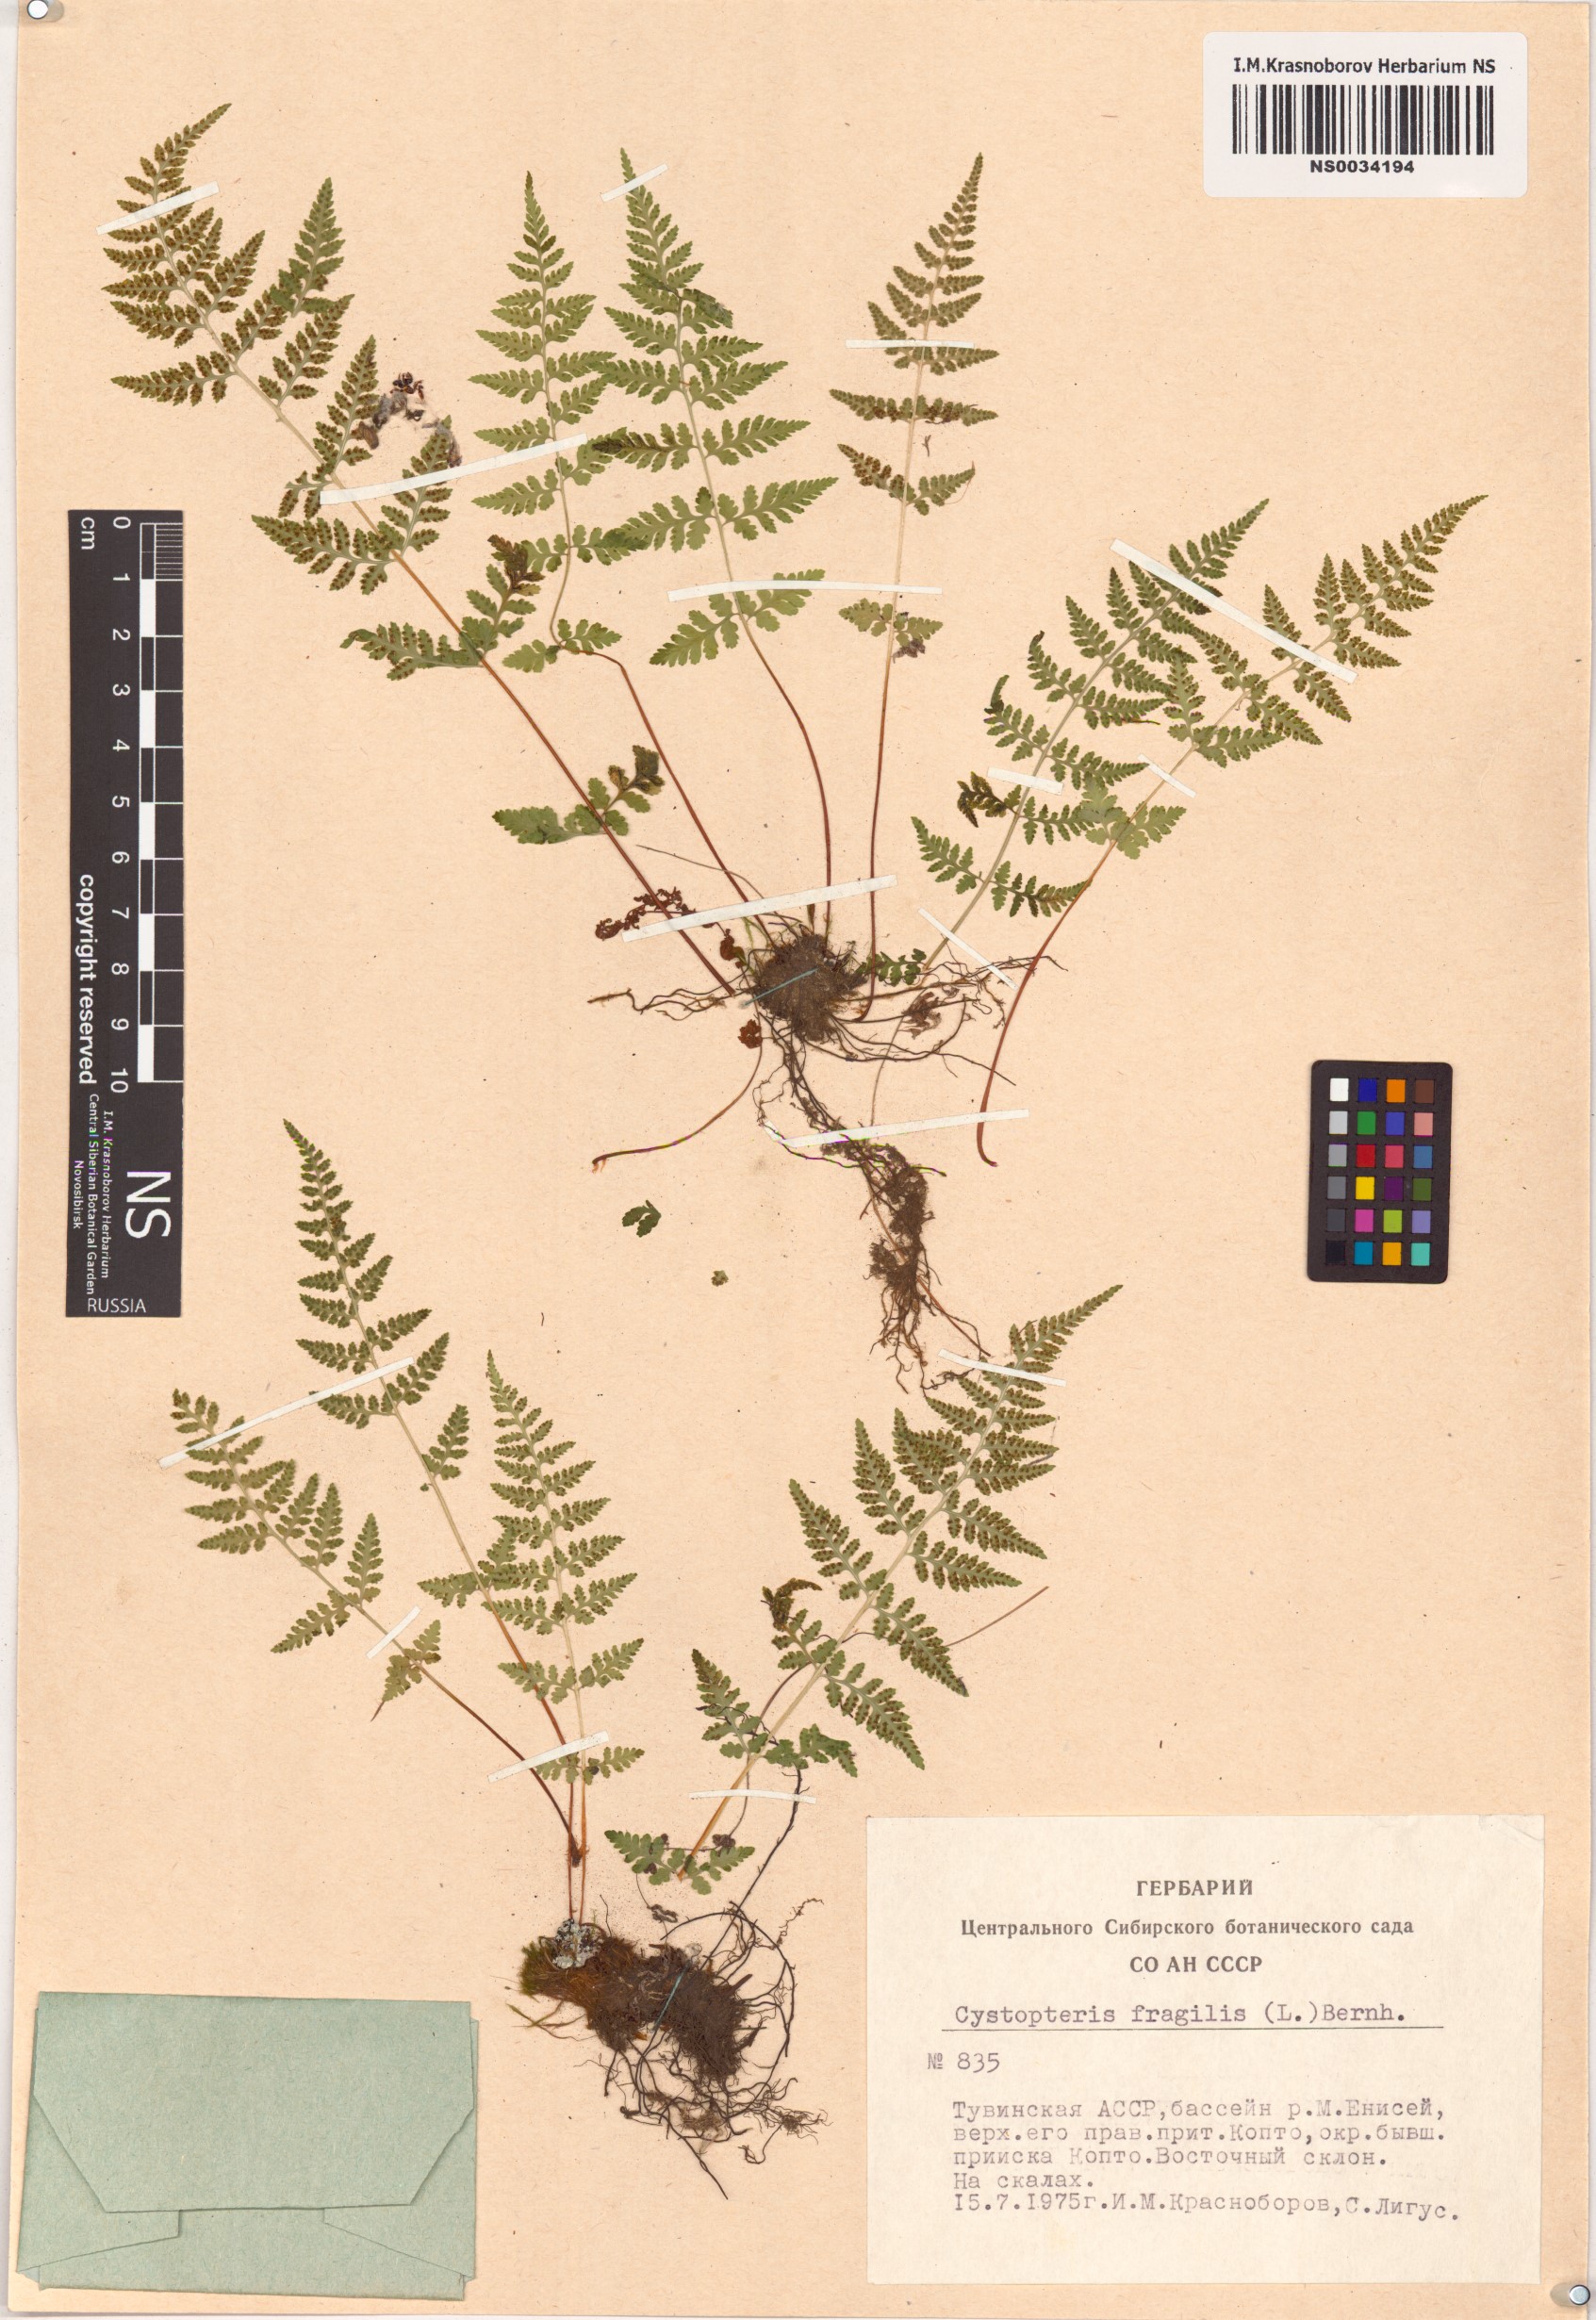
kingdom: Plantae
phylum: Tracheophyta
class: Polypodiopsida
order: Polypodiales
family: Cystopteridaceae
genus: Cystopteris
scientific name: Cystopteris fragilis
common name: Brittle bladder fern
